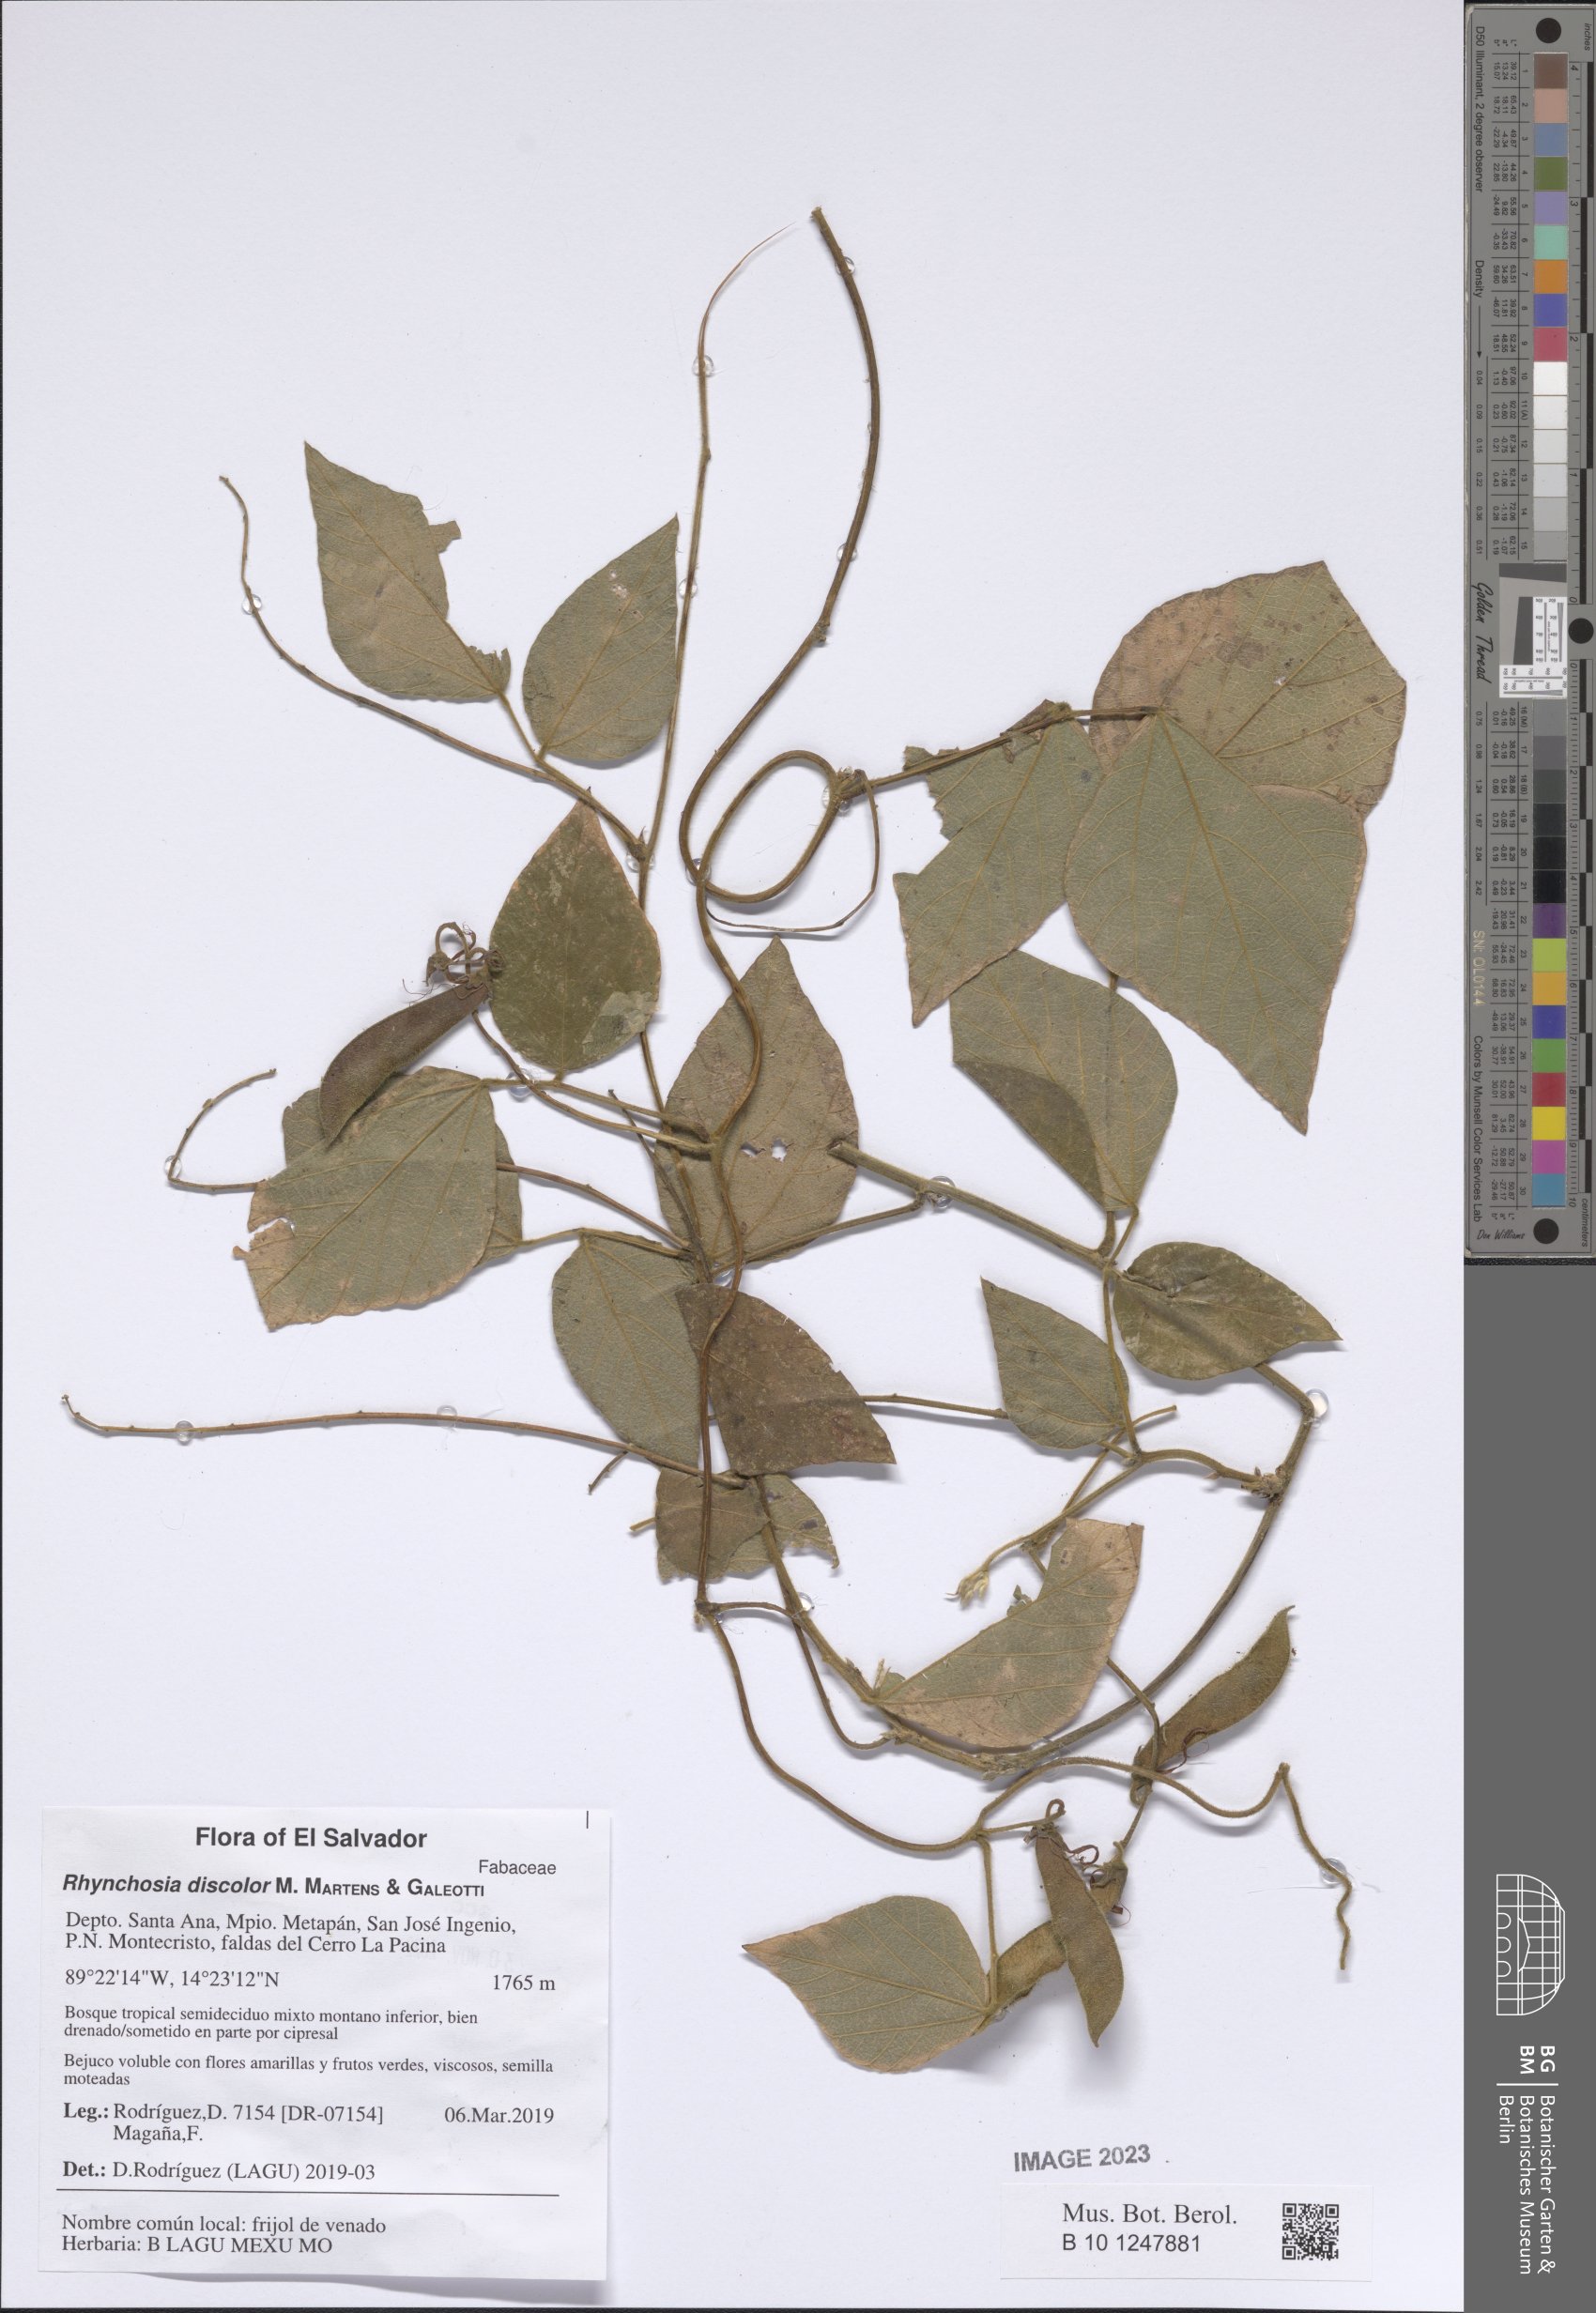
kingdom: Plantae
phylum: Tracheophyta
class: Magnoliopsida
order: Fabales
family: Fabaceae
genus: Rhynchosia
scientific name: Rhynchosia discolor
